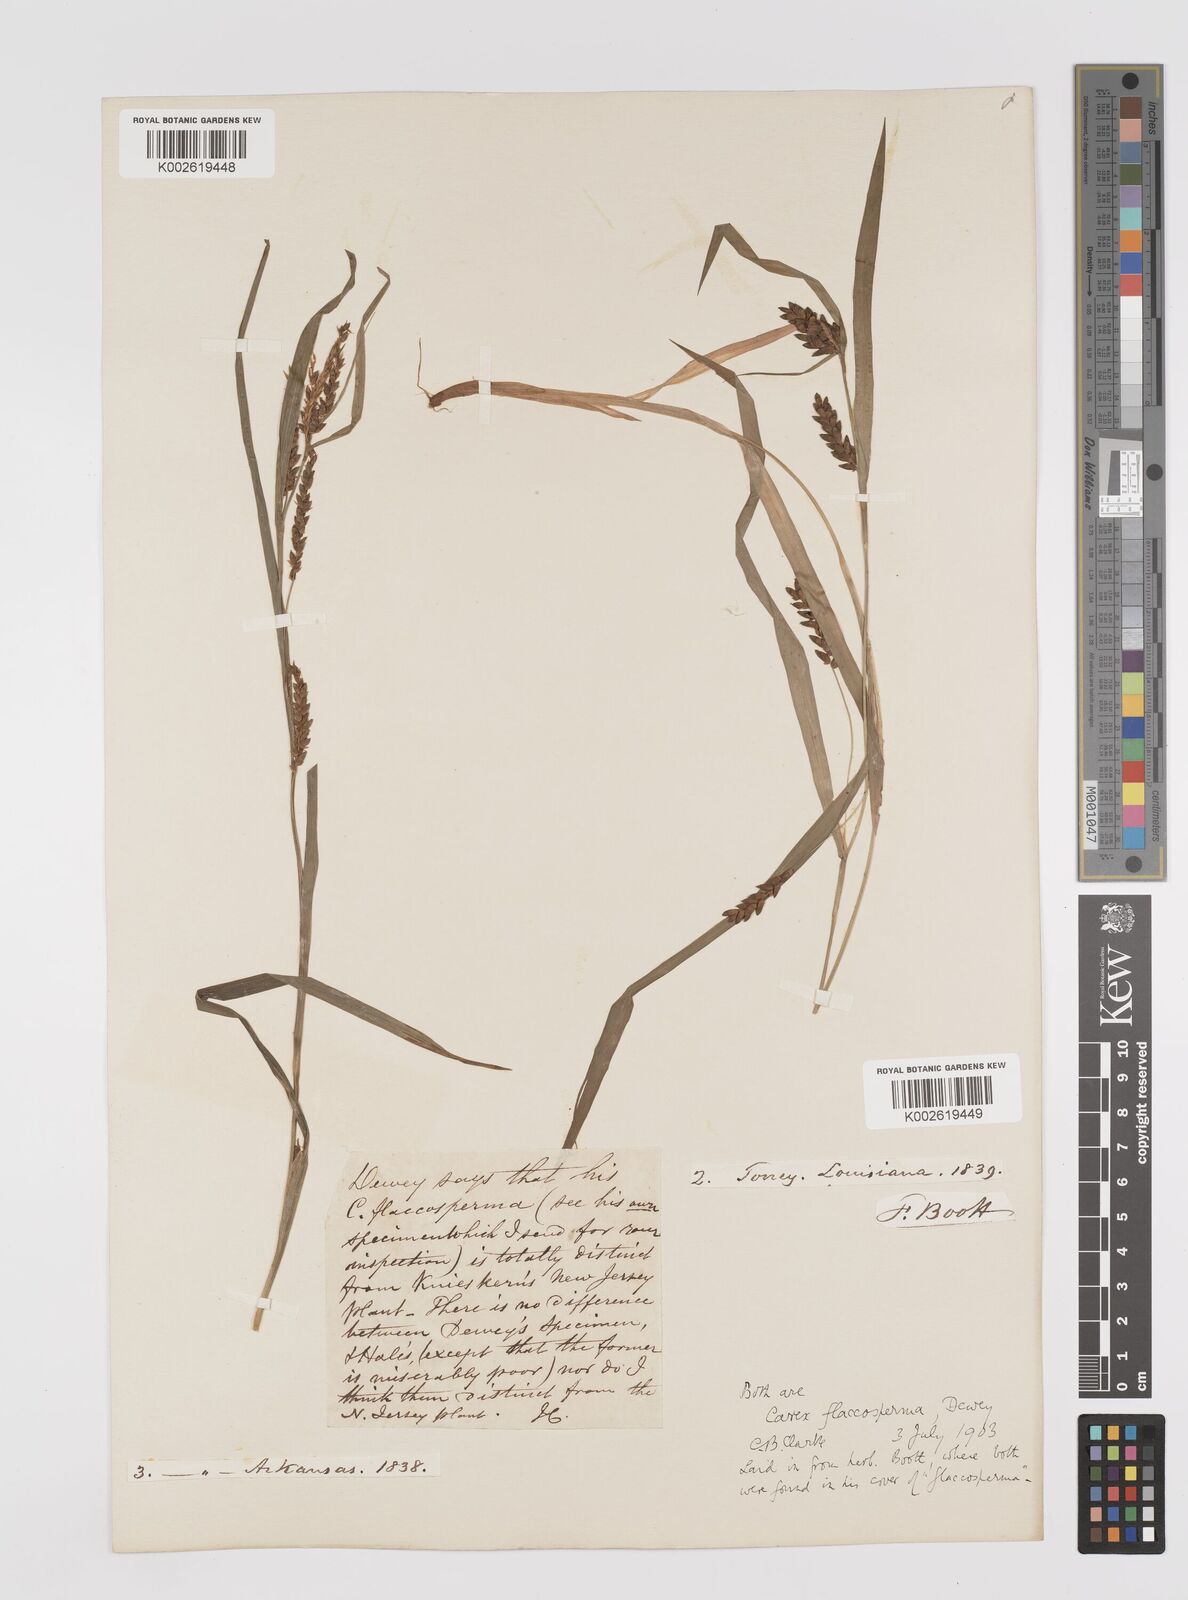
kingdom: Plantae
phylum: Tracheophyta
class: Liliopsida
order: Poales
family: Cyperaceae
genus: Carex
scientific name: Carex flaccosperma
